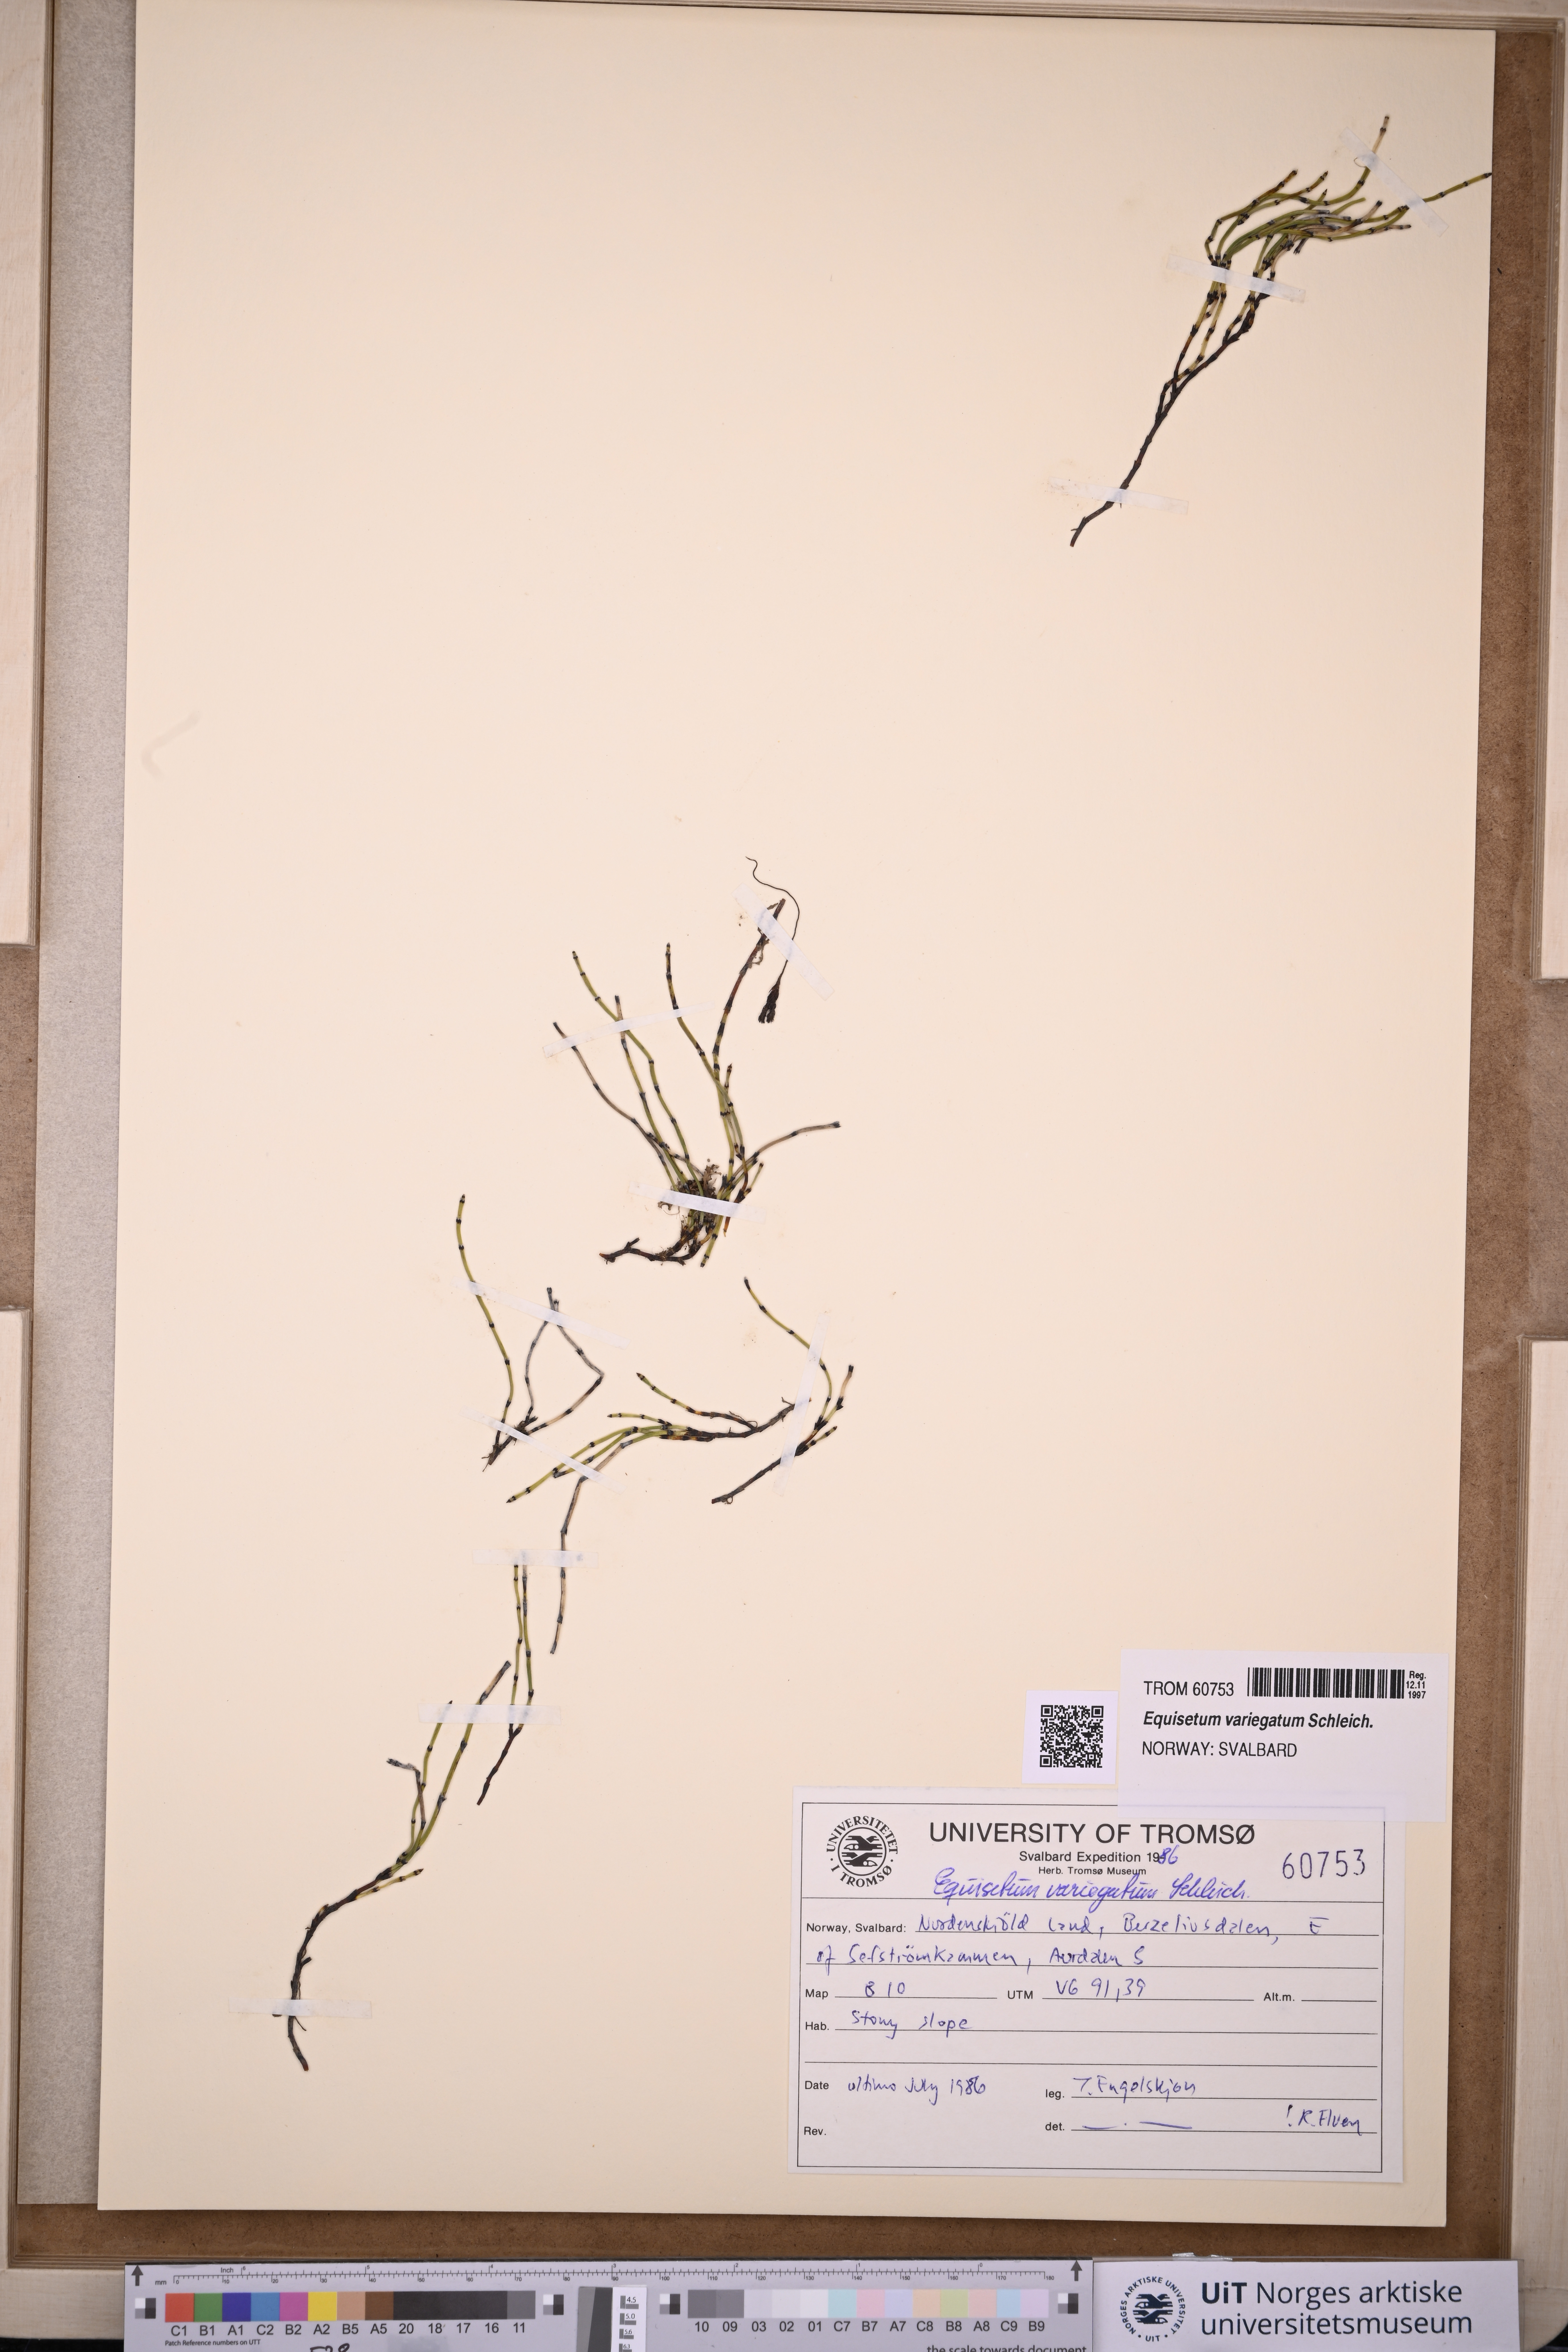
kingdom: Plantae
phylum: Tracheophyta
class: Polypodiopsida
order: Equisetales
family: Equisetaceae
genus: Equisetum
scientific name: Equisetum variegatum
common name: Variegated horsetail
